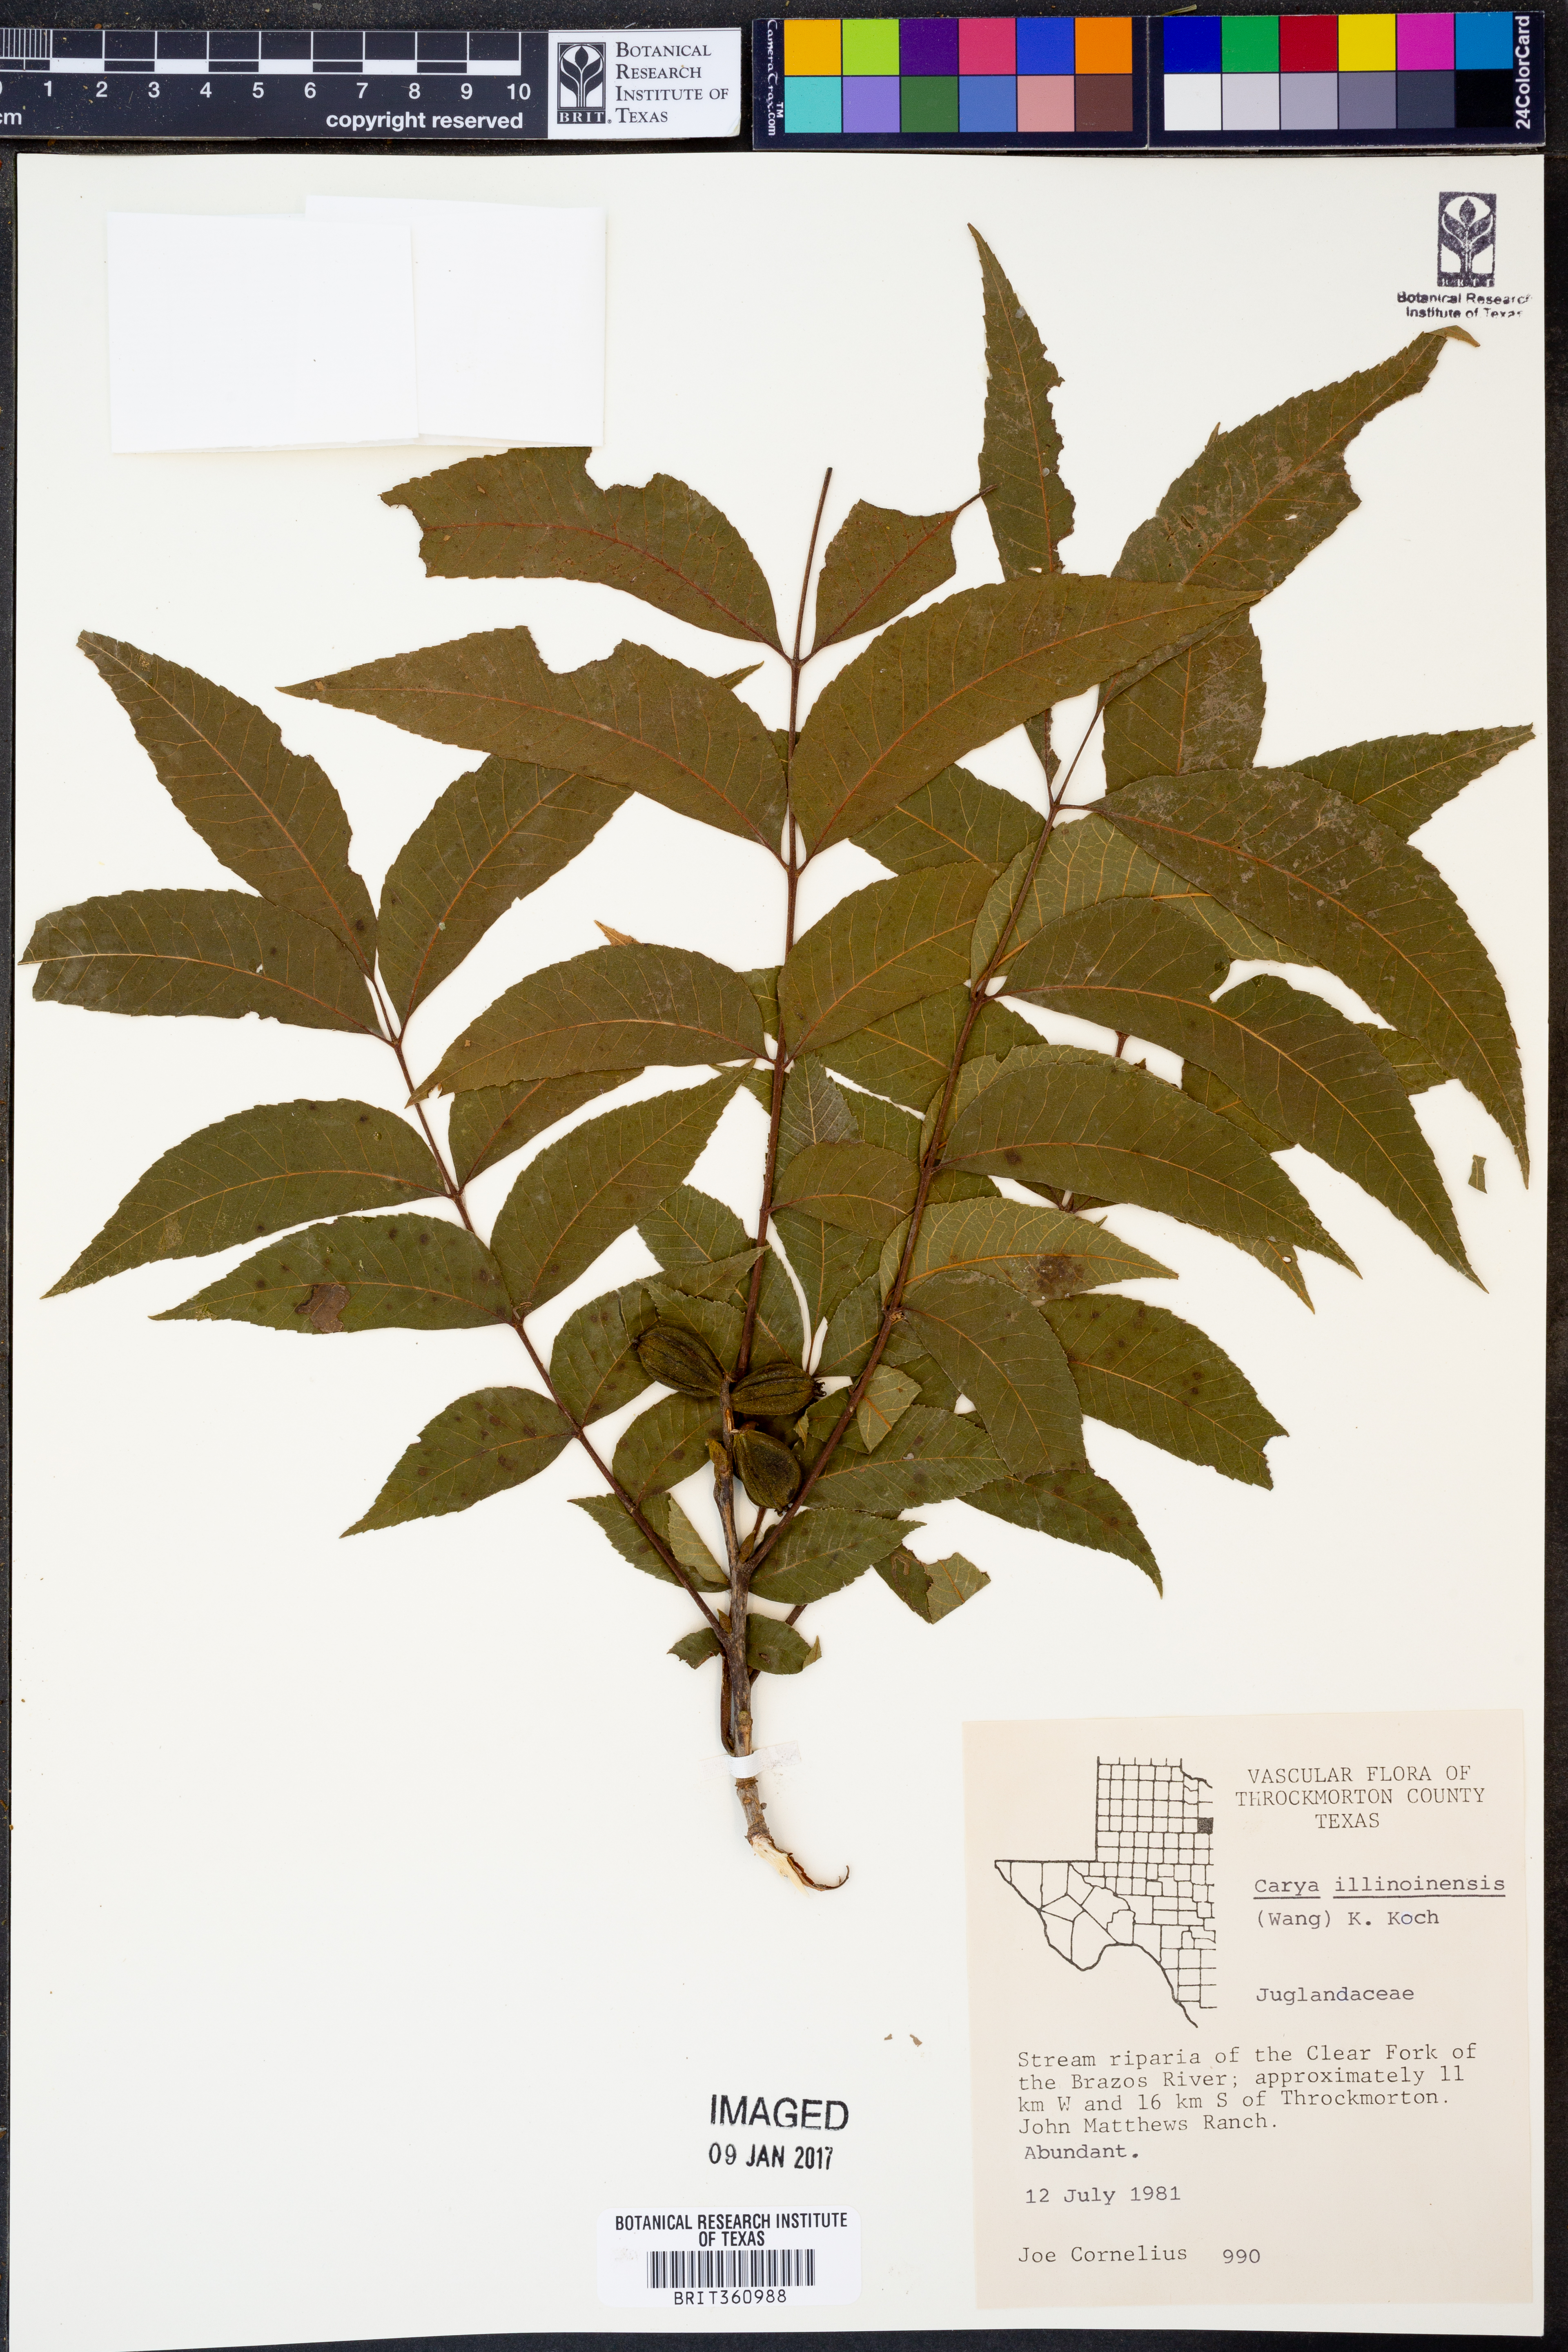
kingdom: Plantae
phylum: Tracheophyta
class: Magnoliopsida
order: Fagales
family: Juglandaceae
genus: Carya
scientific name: Carya illinoinensis
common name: Pecan
